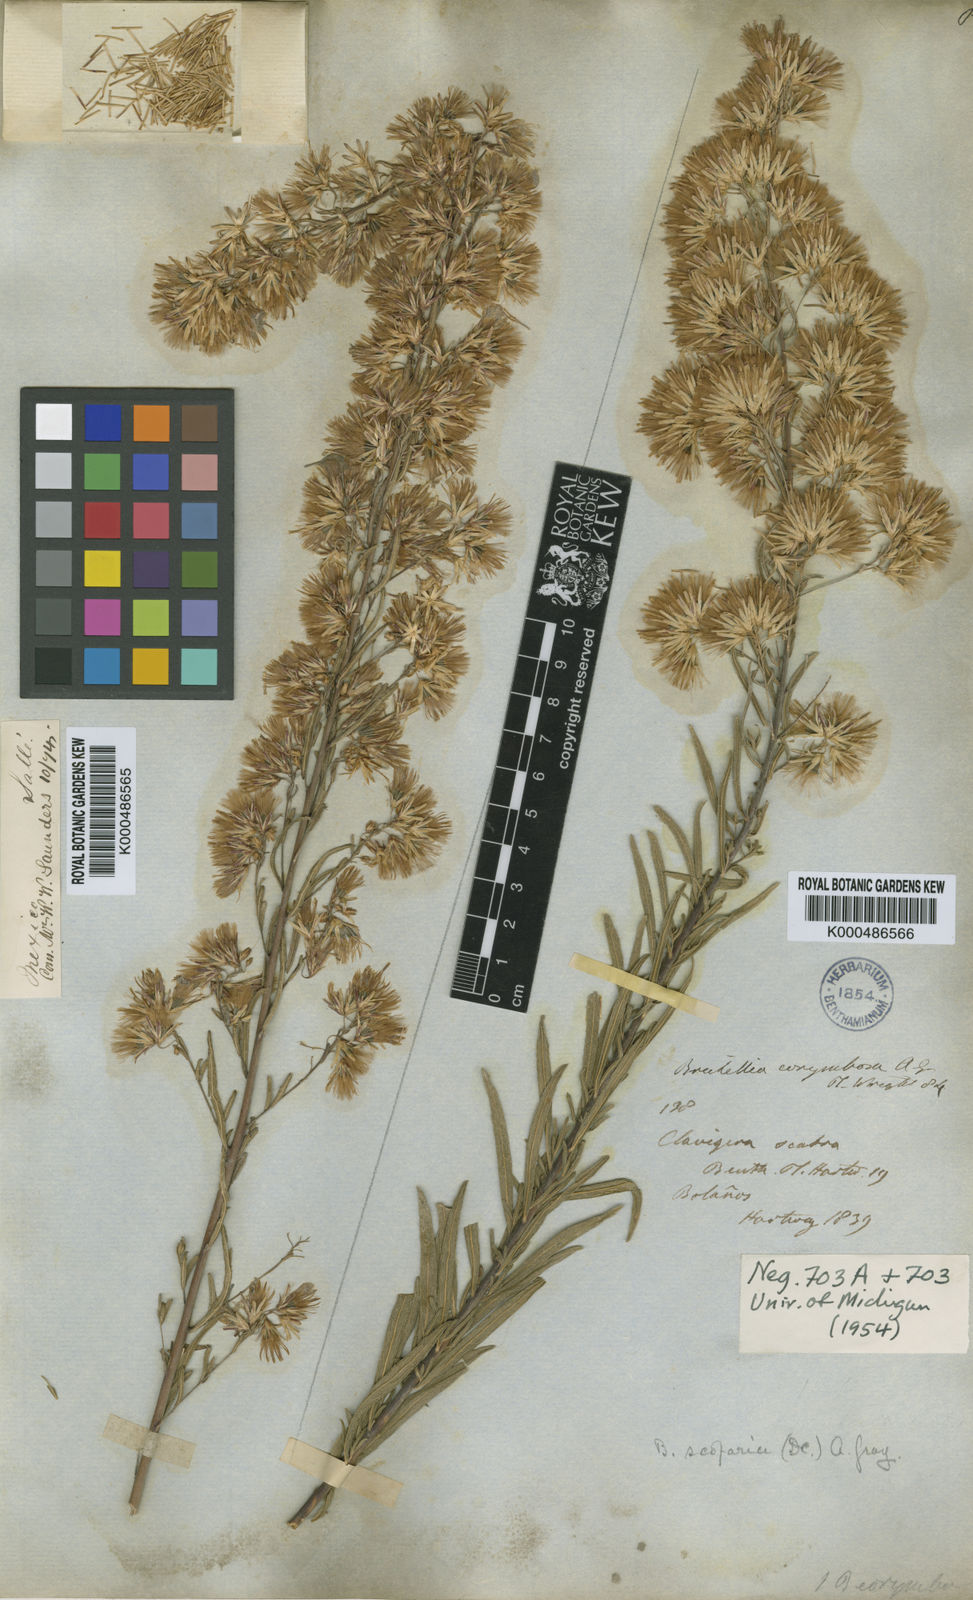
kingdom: Plantae
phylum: Tracheophyta
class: Magnoliopsida
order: Asterales
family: Asteraceae
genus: Brickellia
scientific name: Brickellia scoparia
